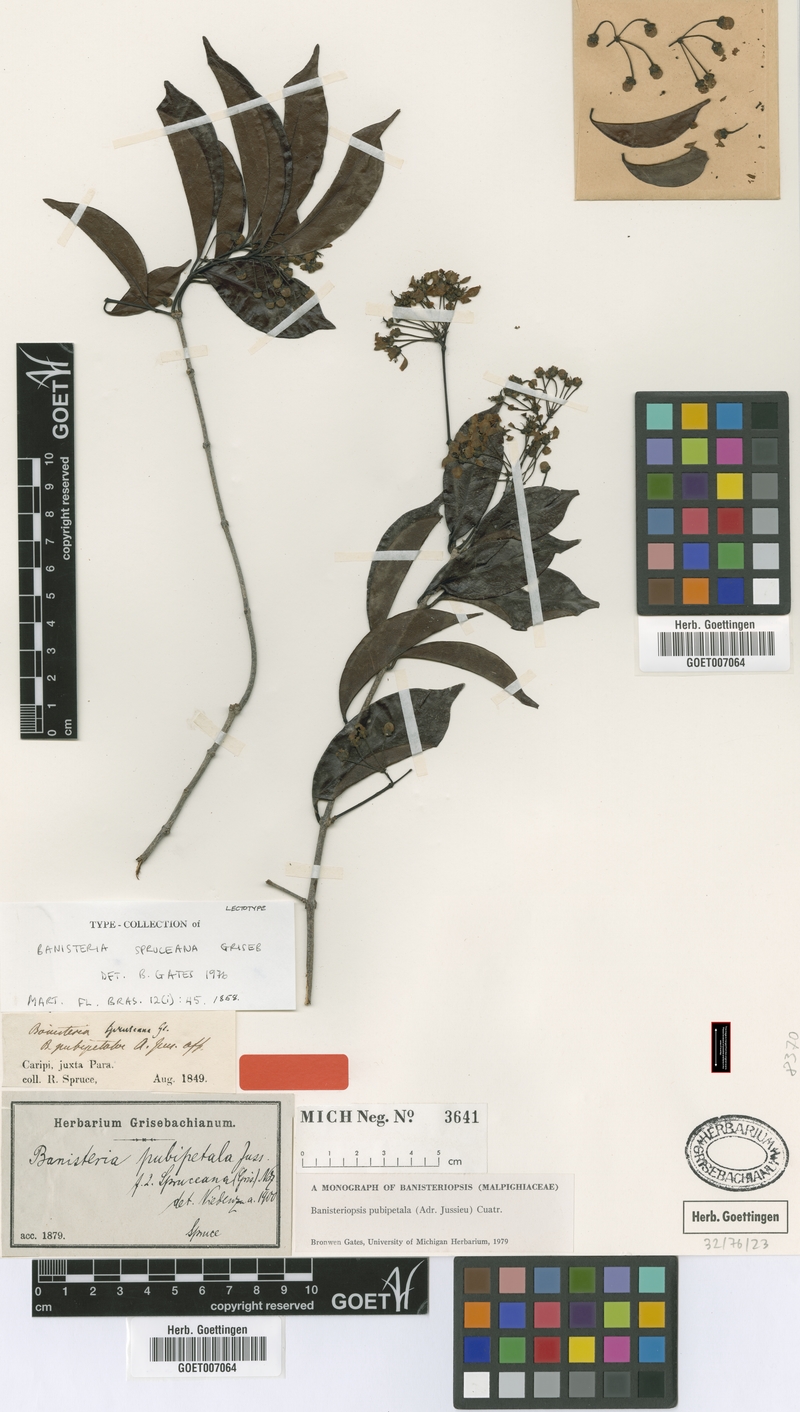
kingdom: Plantae
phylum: Tracheophyta
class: Magnoliopsida
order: Malpighiales
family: Malpighiaceae
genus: Diplopterys
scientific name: Diplopterys pubipetala
